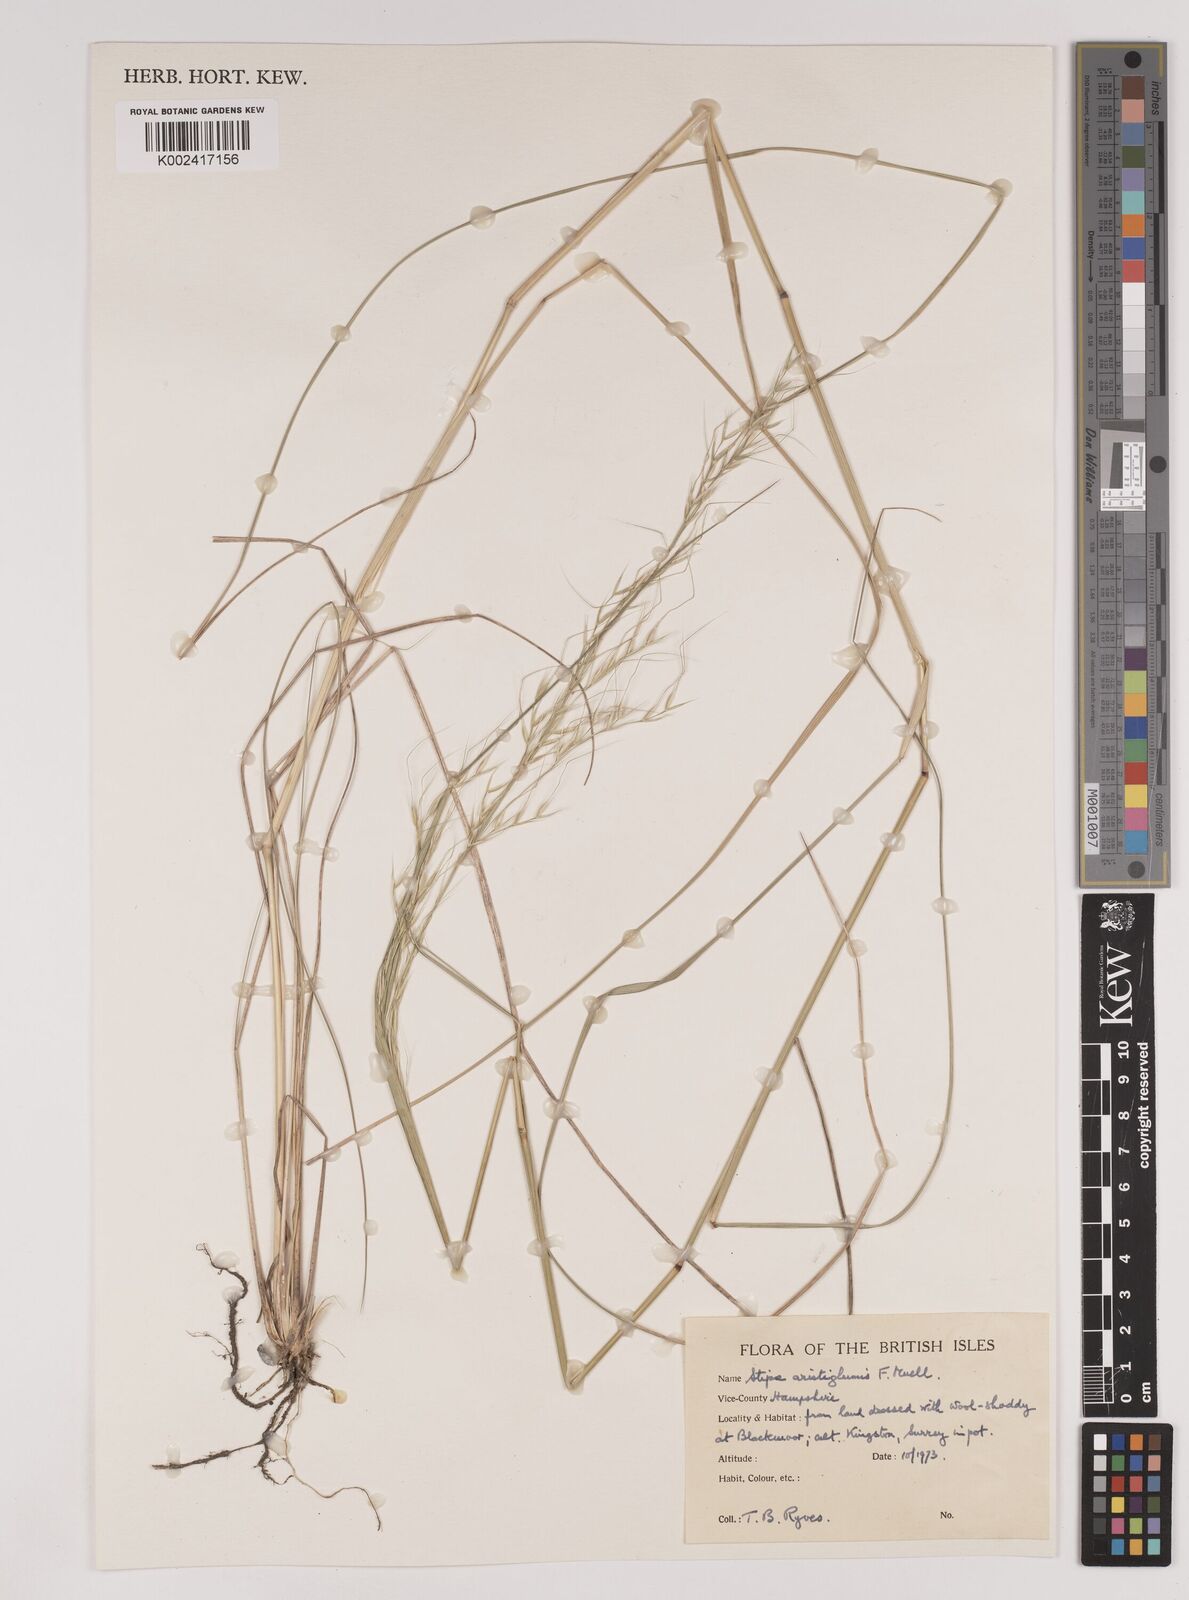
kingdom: Plantae
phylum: Tracheophyta
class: Liliopsida
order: Poales
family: Poaceae
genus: Austrostipa
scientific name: Austrostipa aristiglumis
